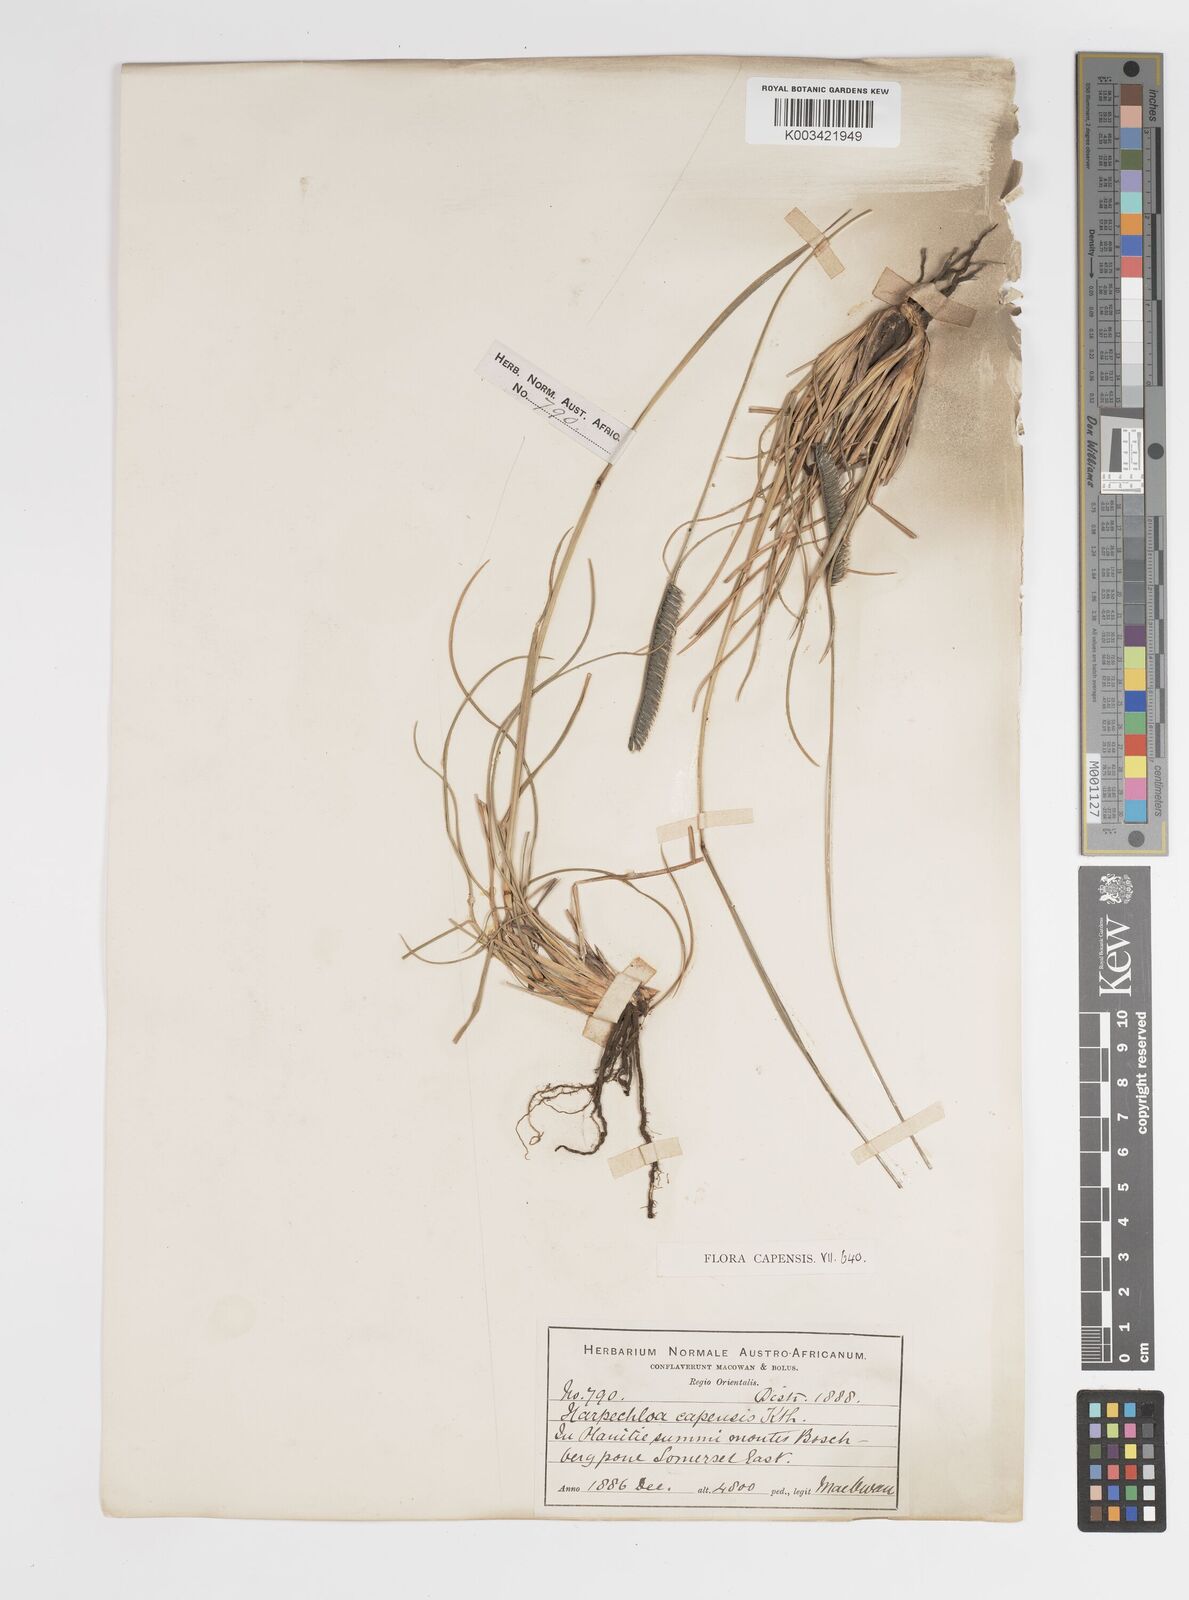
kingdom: Plantae
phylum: Tracheophyta
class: Liliopsida
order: Poales
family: Poaceae
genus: Harpochloa
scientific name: Harpochloa falx
